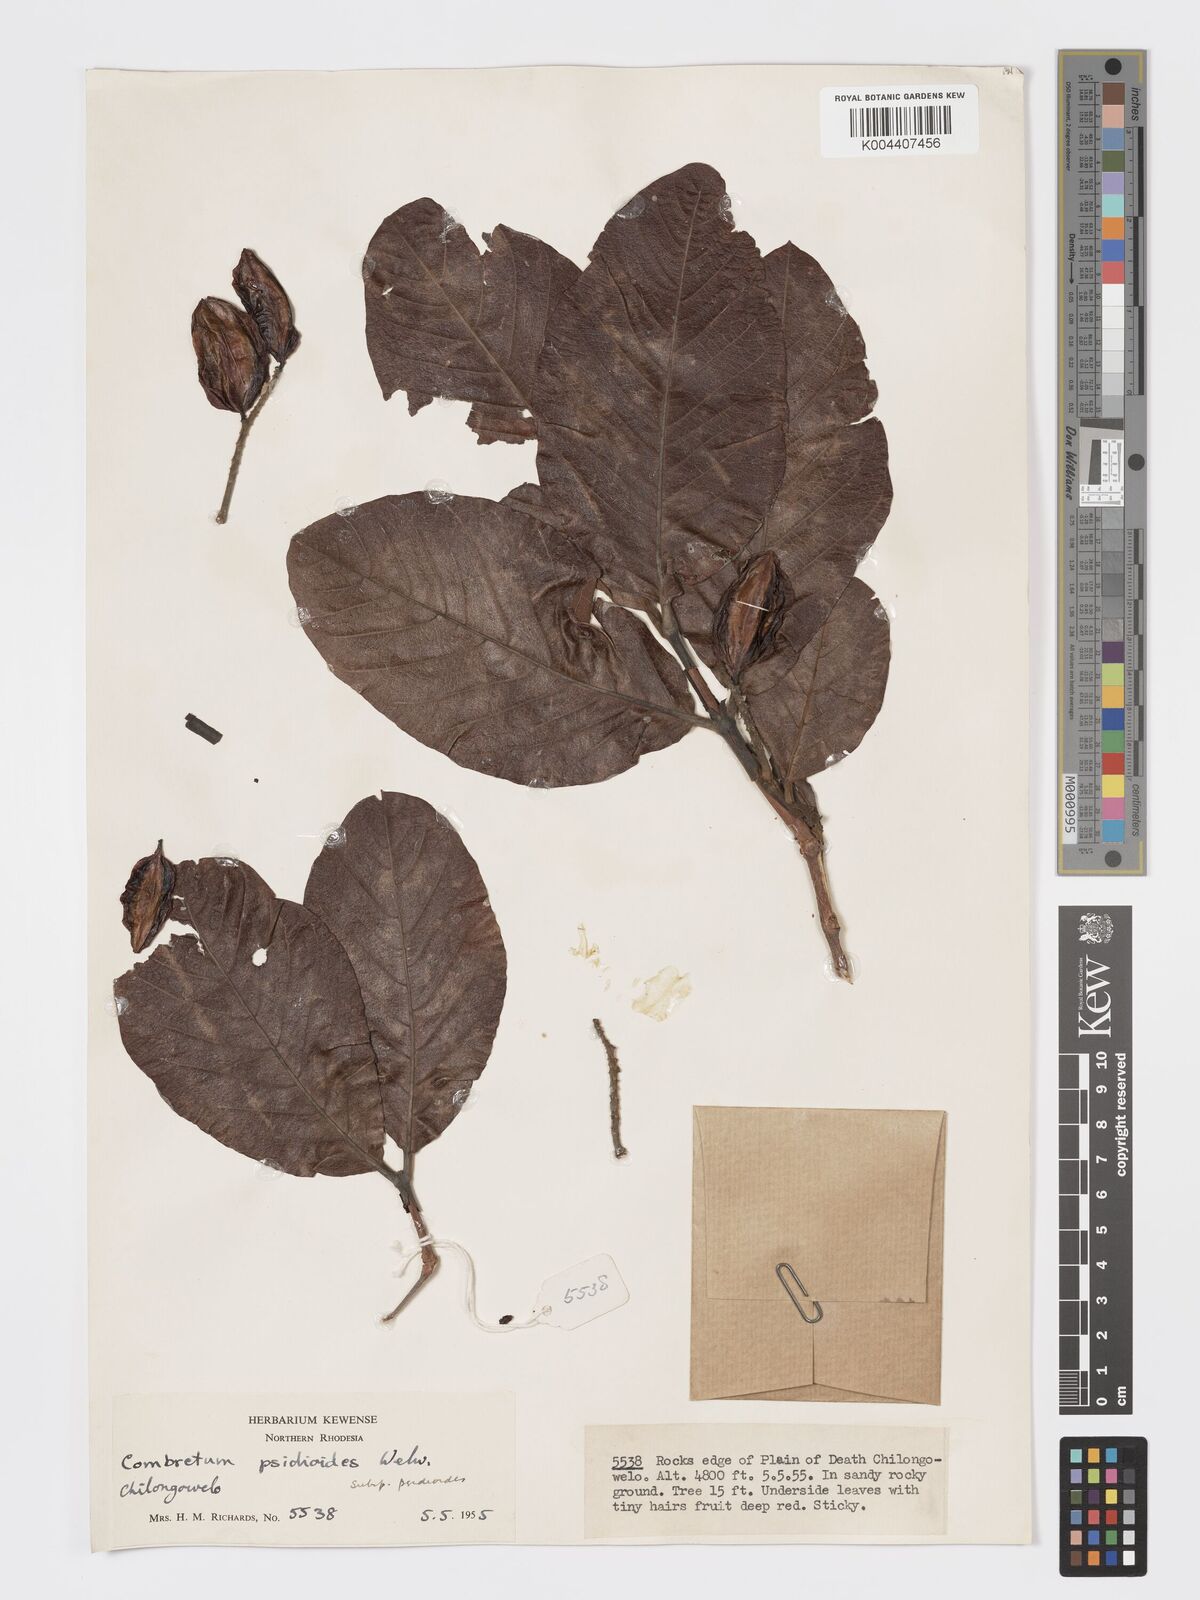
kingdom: Plantae
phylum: Tracheophyta
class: Magnoliopsida
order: Myrtales
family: Combretaceae
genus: Combretum
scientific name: Combretum psidioides
